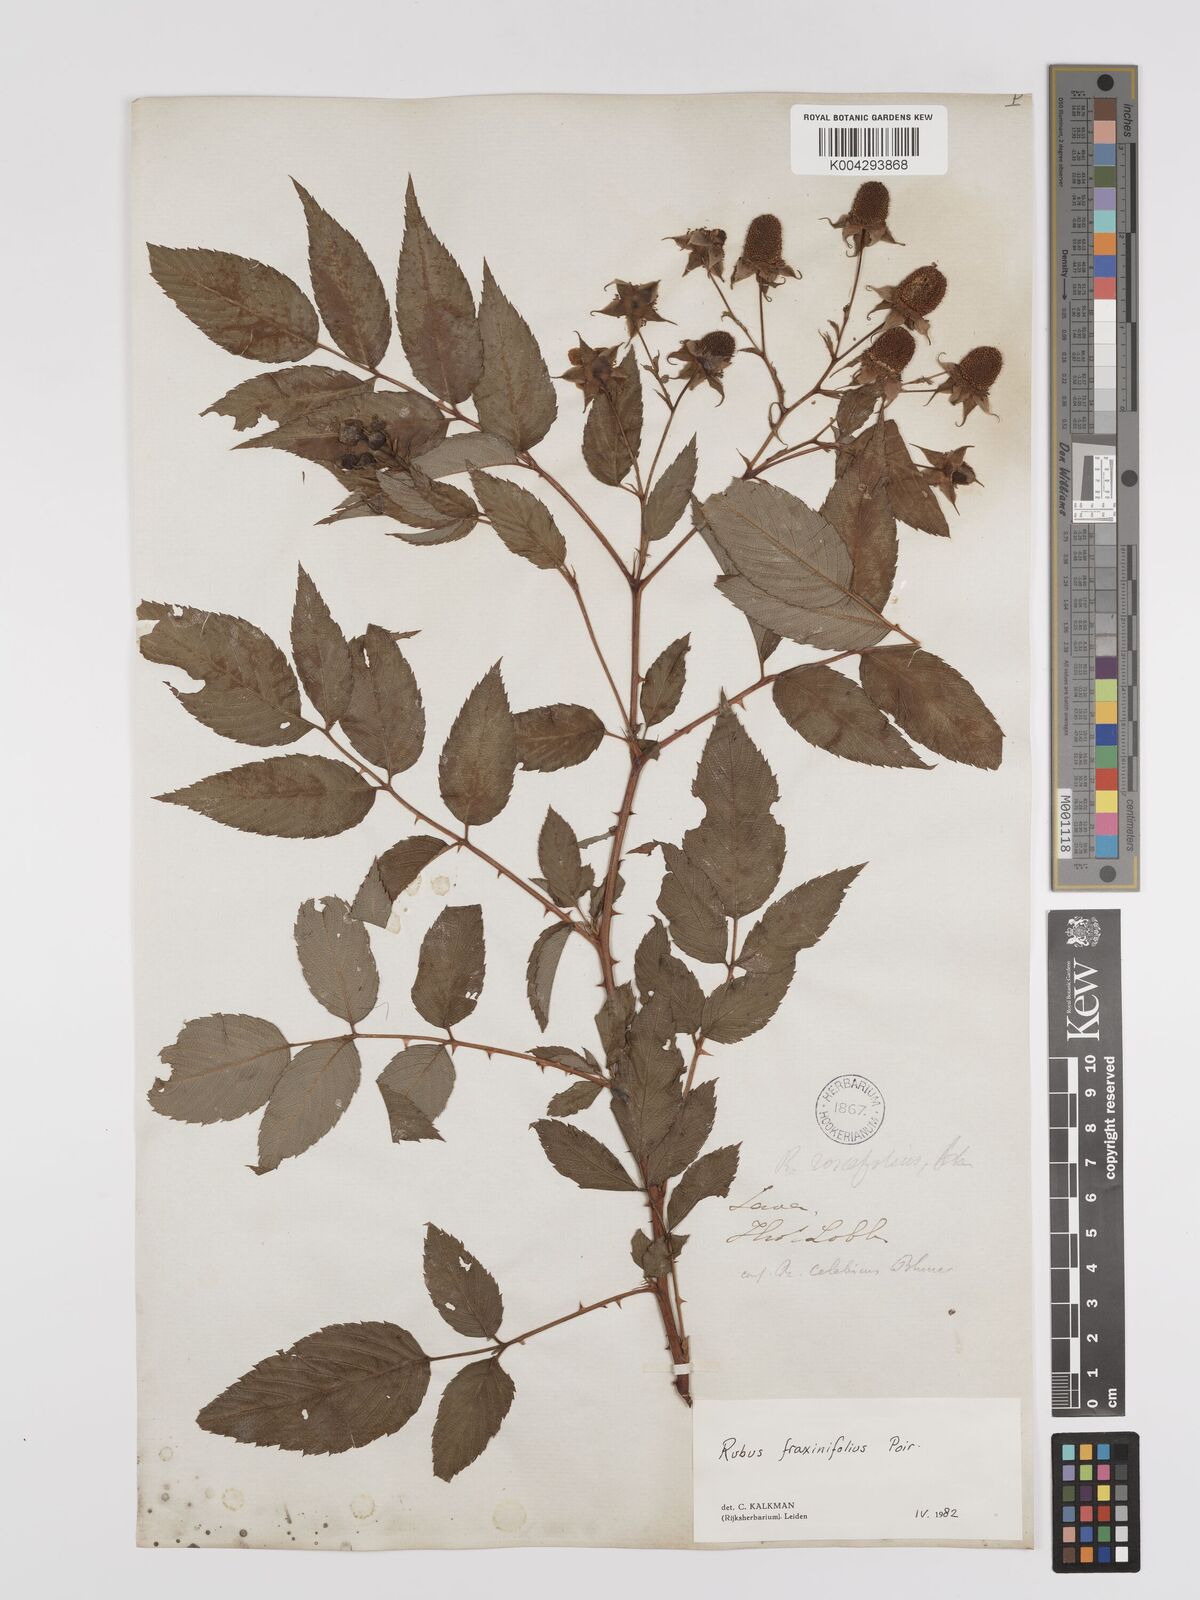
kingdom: Plantae
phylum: Tracheophyta
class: Magnoliopsida
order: Rosales
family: Rosaceae
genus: Rubus
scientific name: Rubus fraxinifolius
